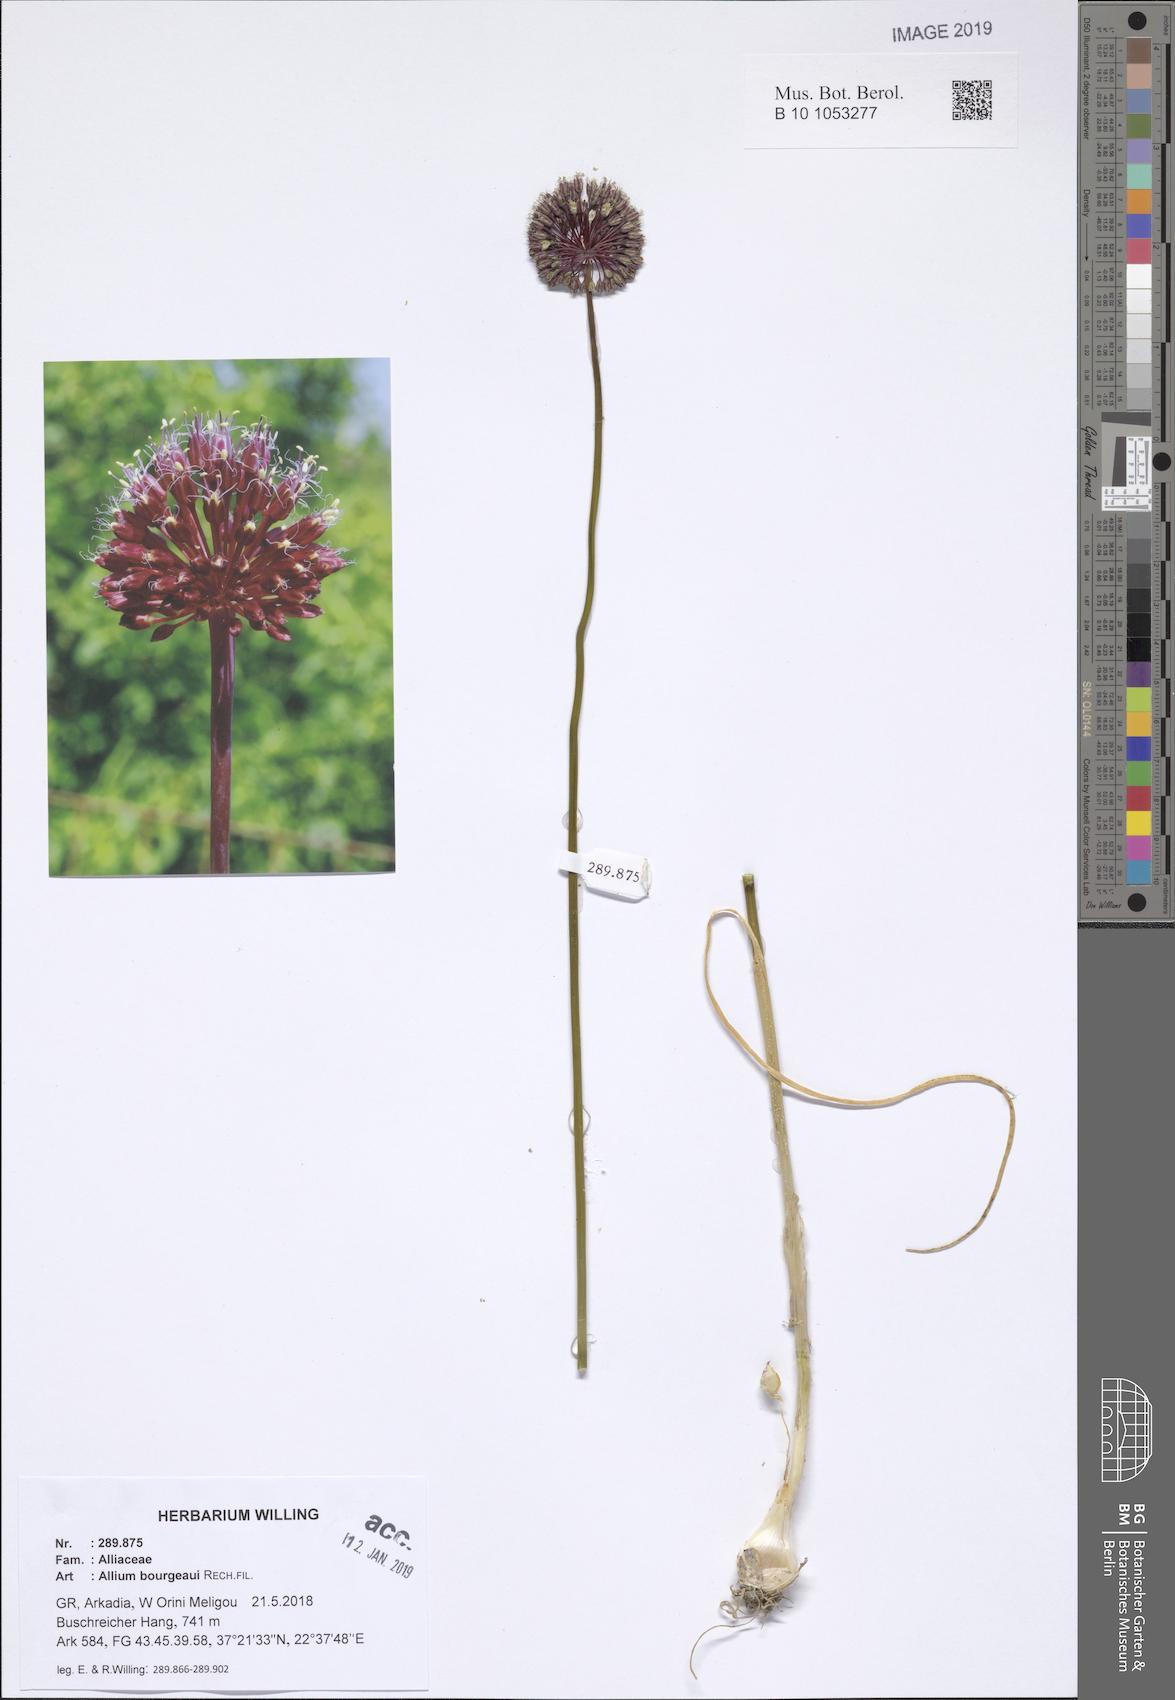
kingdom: Plantae
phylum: Tracheophyta
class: Liliopsida
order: Asparagales
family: Amaryllidaceae
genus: Allium
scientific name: Allium bourgeaui
